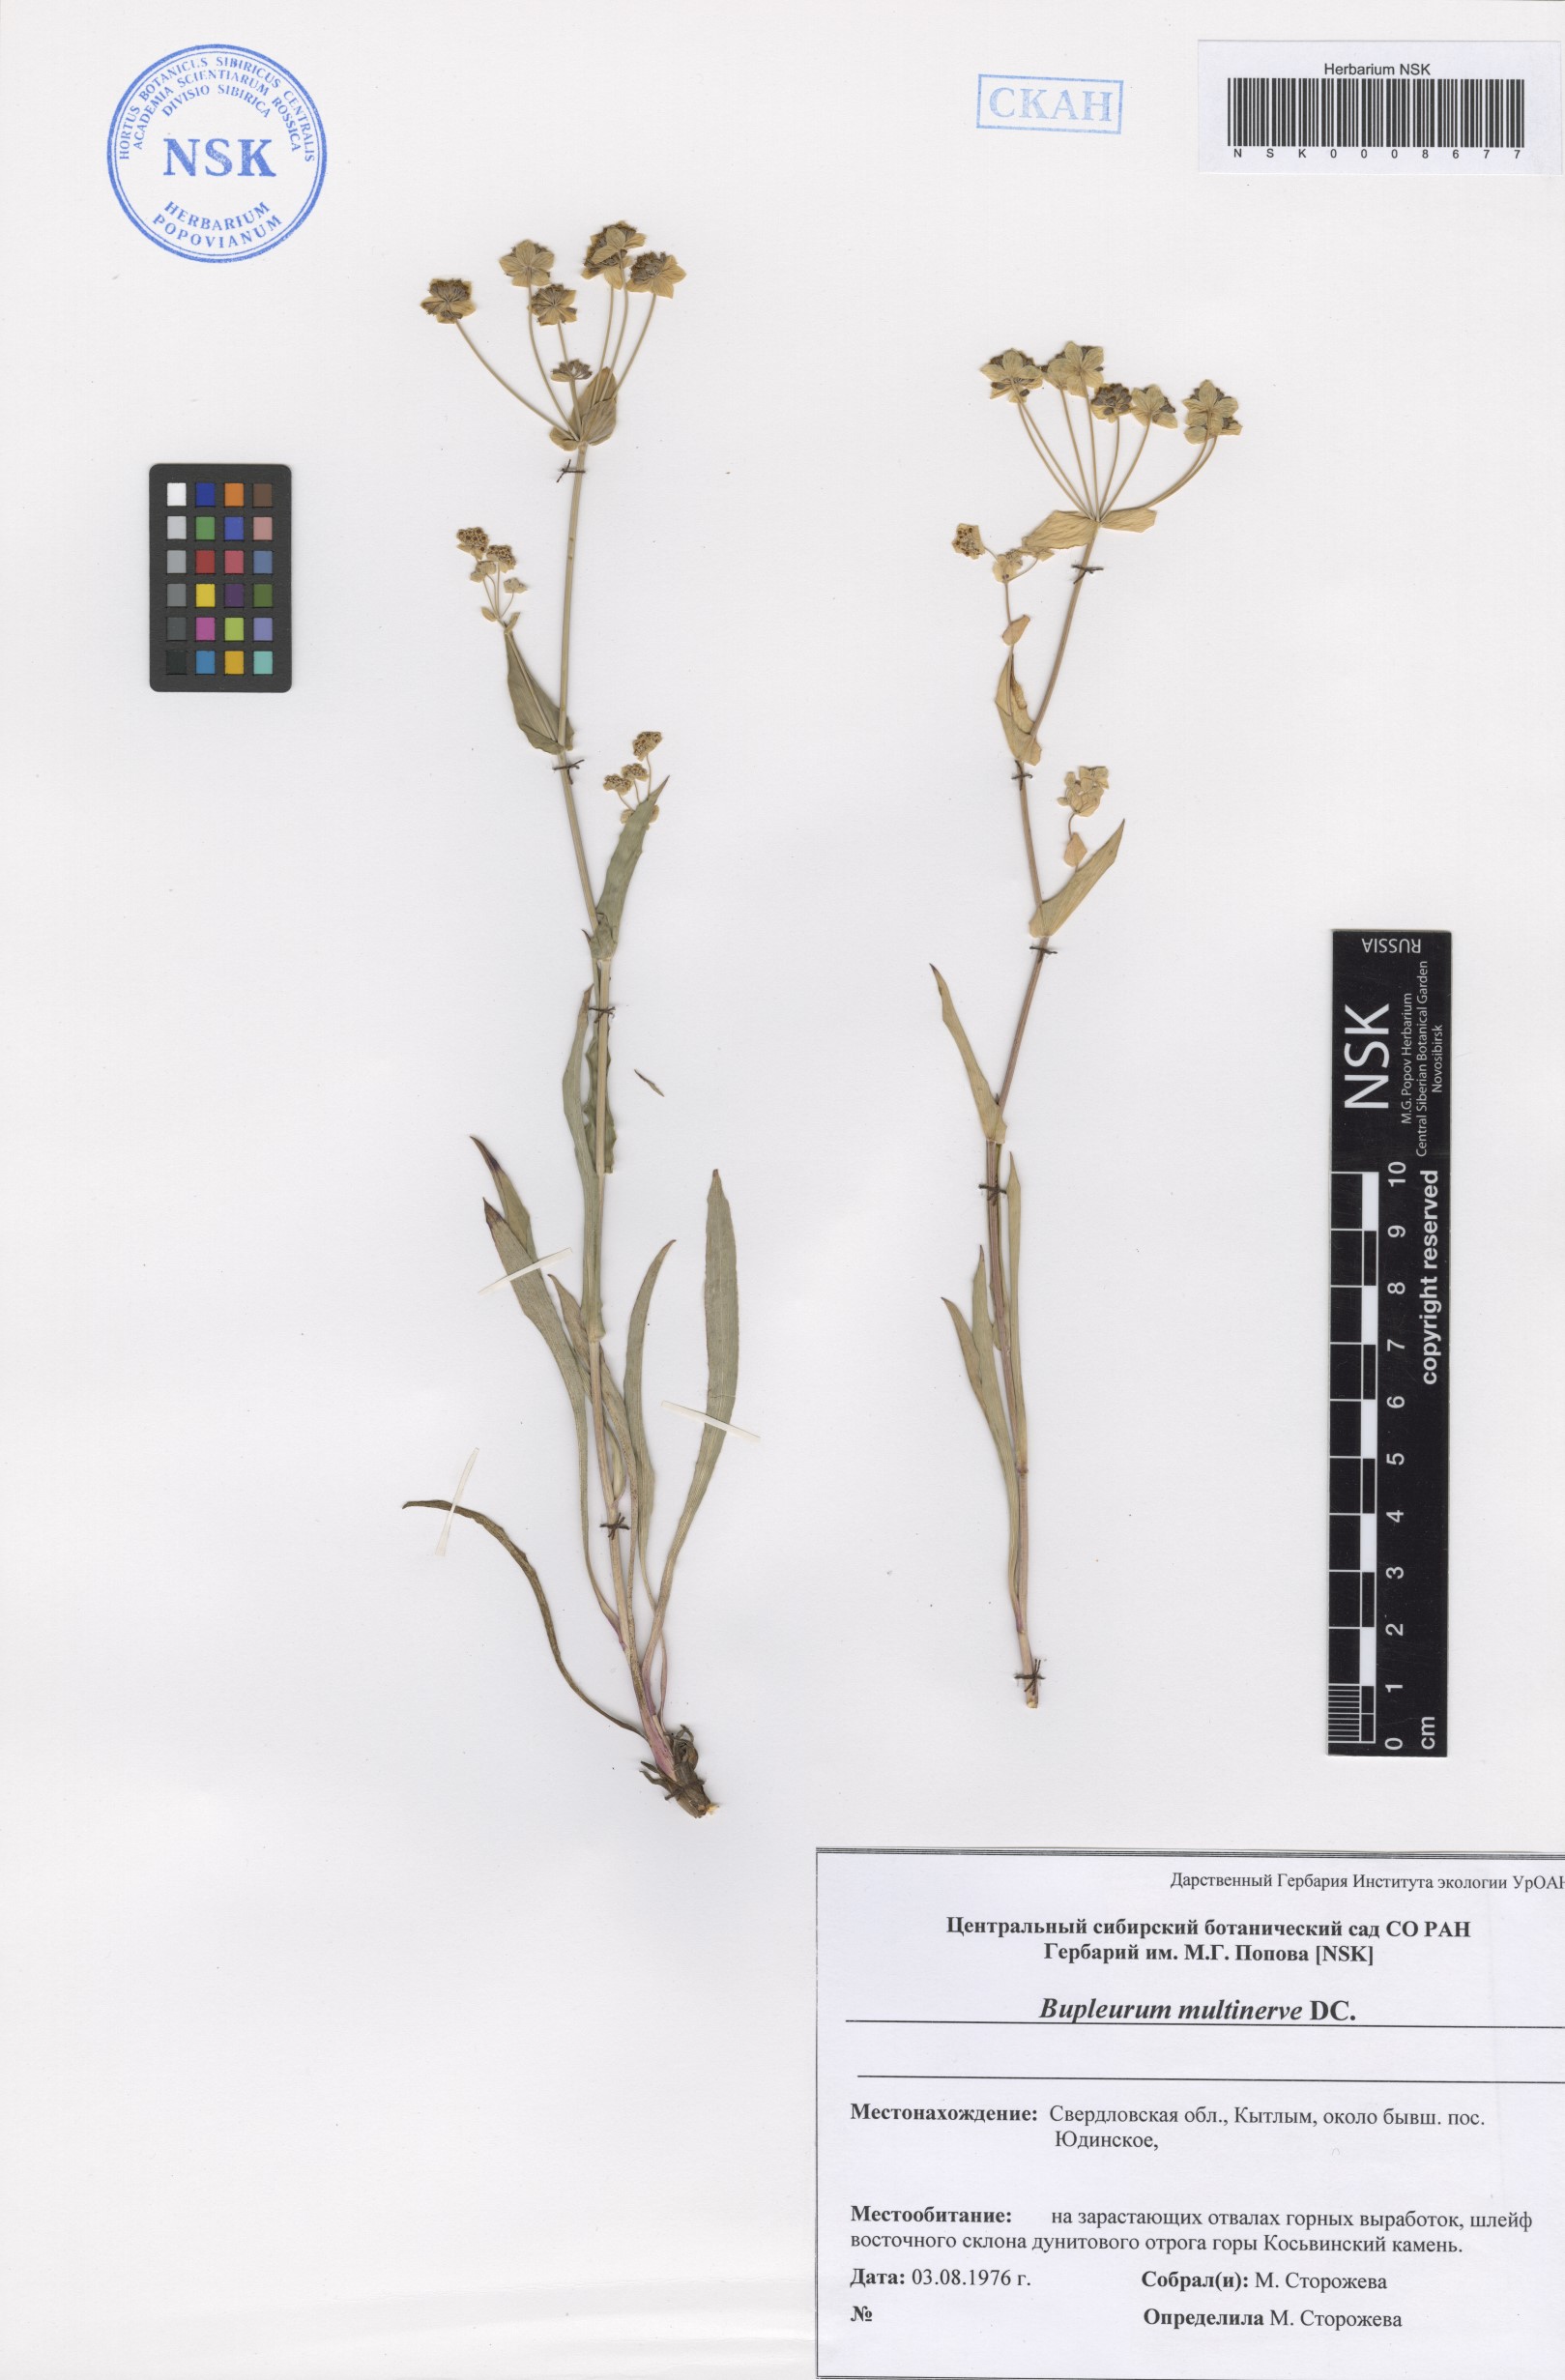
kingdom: Plantae
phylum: Tracheophyta
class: Magnoliopsida
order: Apiales
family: Apiaceae
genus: Bupleurum
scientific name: Bupleurum multinerve
